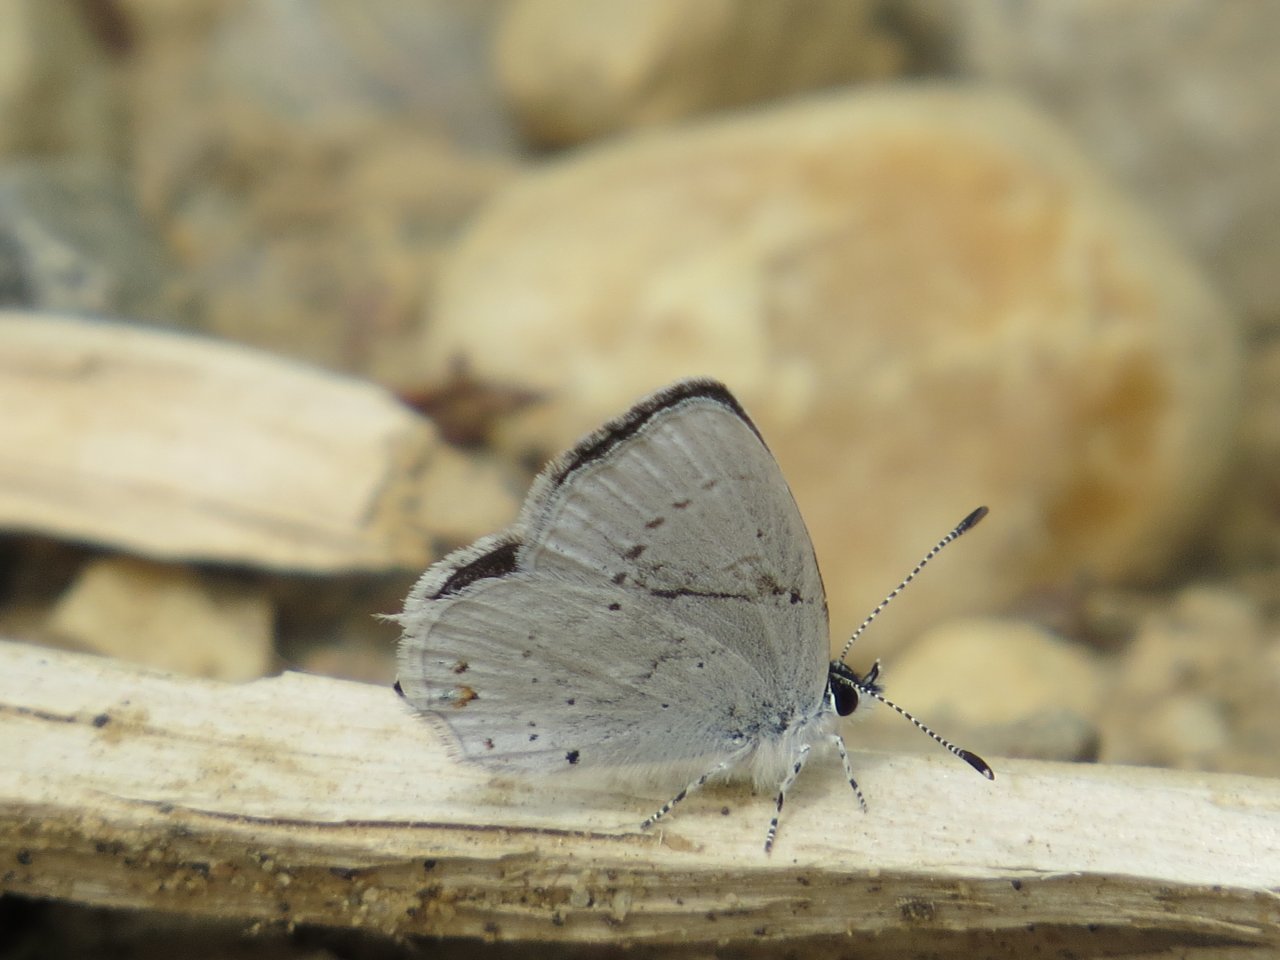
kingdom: Animalia
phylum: Arthropoda
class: Insecta
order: Lepidoptera
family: Lycaenidae
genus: Elkalyce
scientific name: Elkalyce amyntula
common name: Western Tailed-Blue
